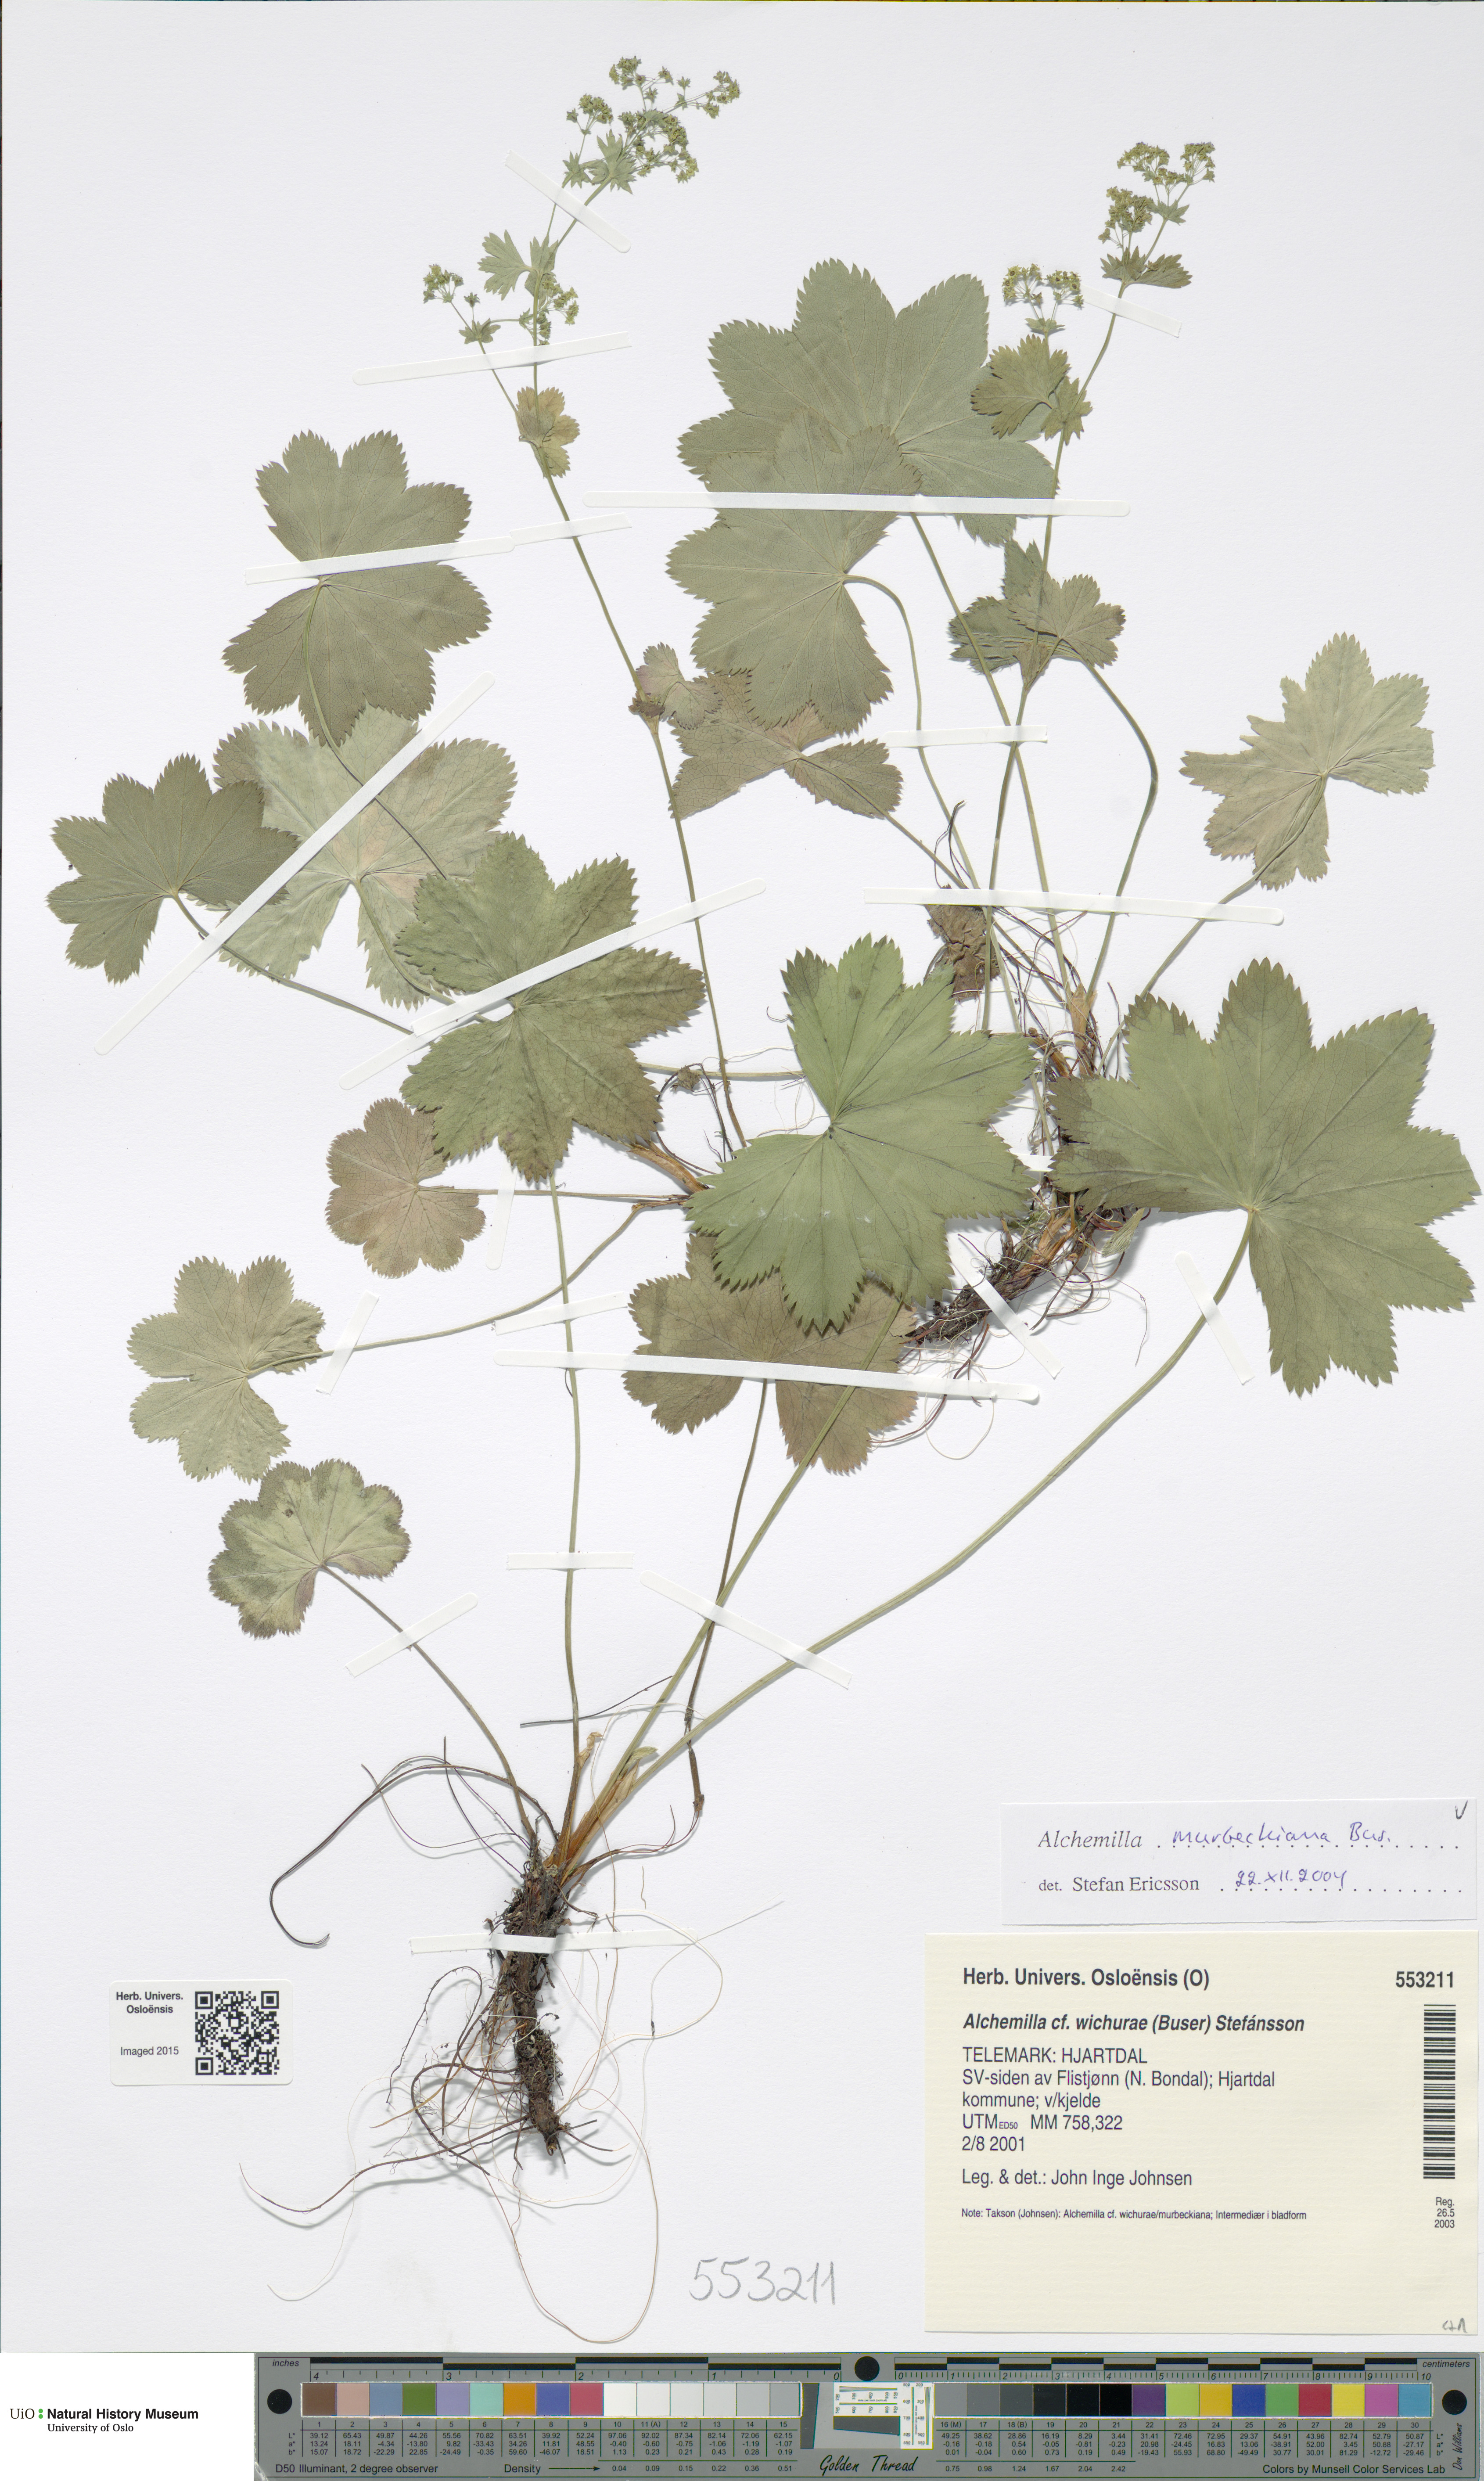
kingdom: Plantae
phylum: Tracheophyta
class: Magnoliopsida
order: Rosales
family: Rosaceae
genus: Alchemilla
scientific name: Alchemilla murbeckiana
